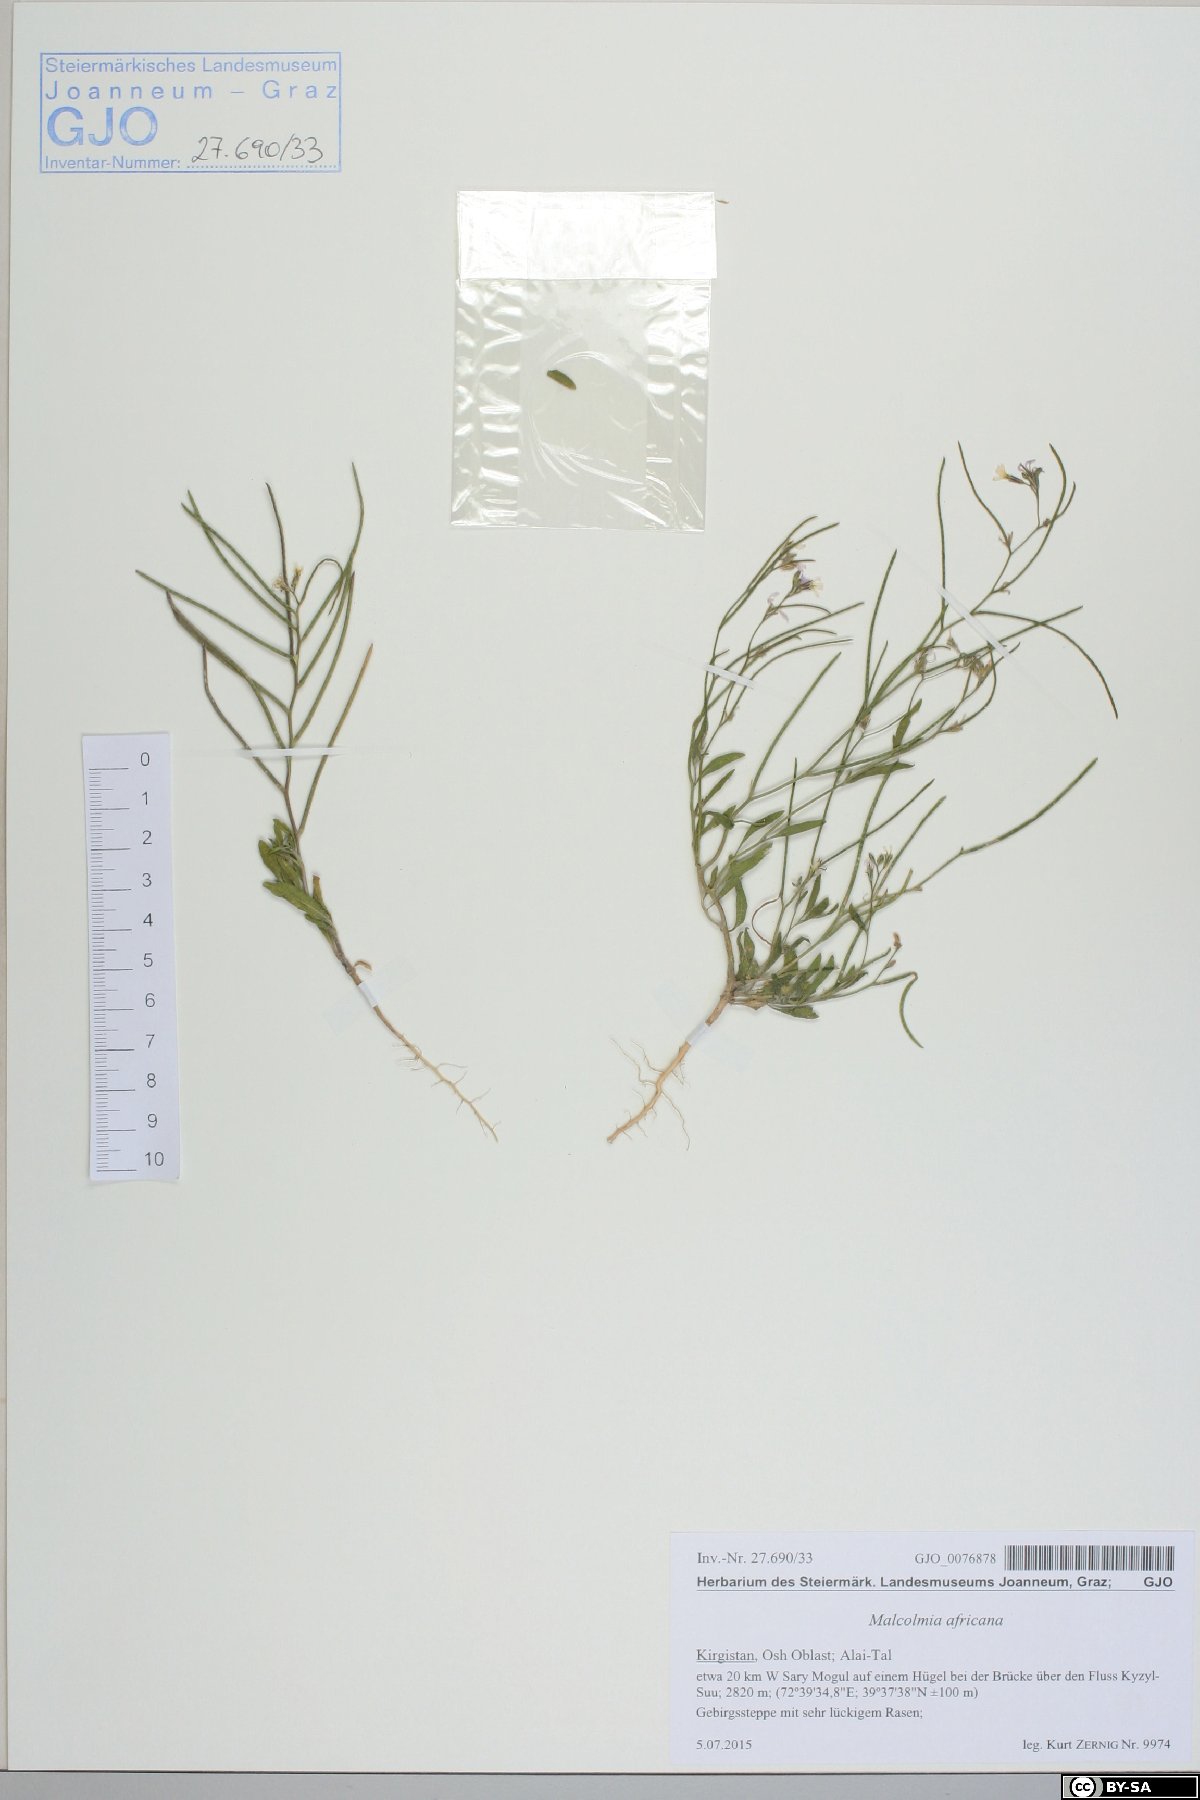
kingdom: Plantae
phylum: Tracheophyta
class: Magnoliopsida
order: Brassicales
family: Brassicaceae
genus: Malcolmia
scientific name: Malcolmia africana
